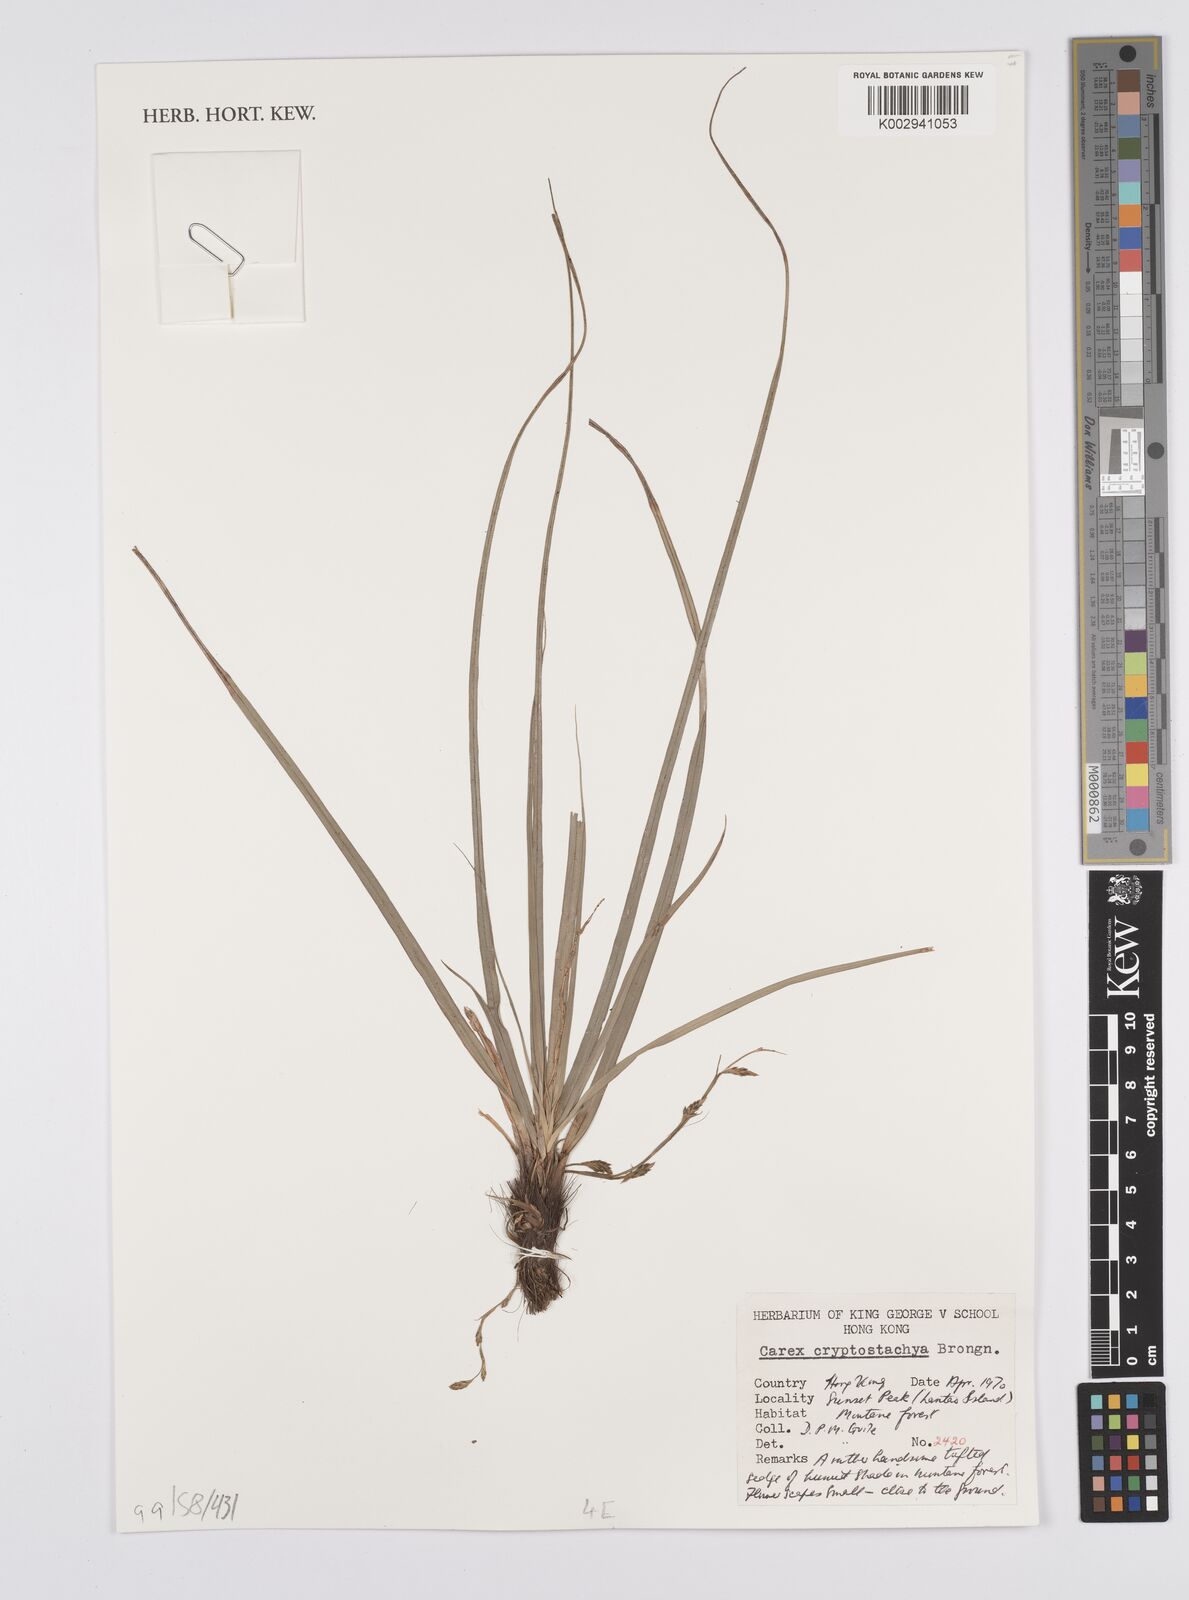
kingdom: Plantae
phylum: Tracheophyta
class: Liliopsida
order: Poales
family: Cyperaceae
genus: Carex
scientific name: Carex cryptostachys
